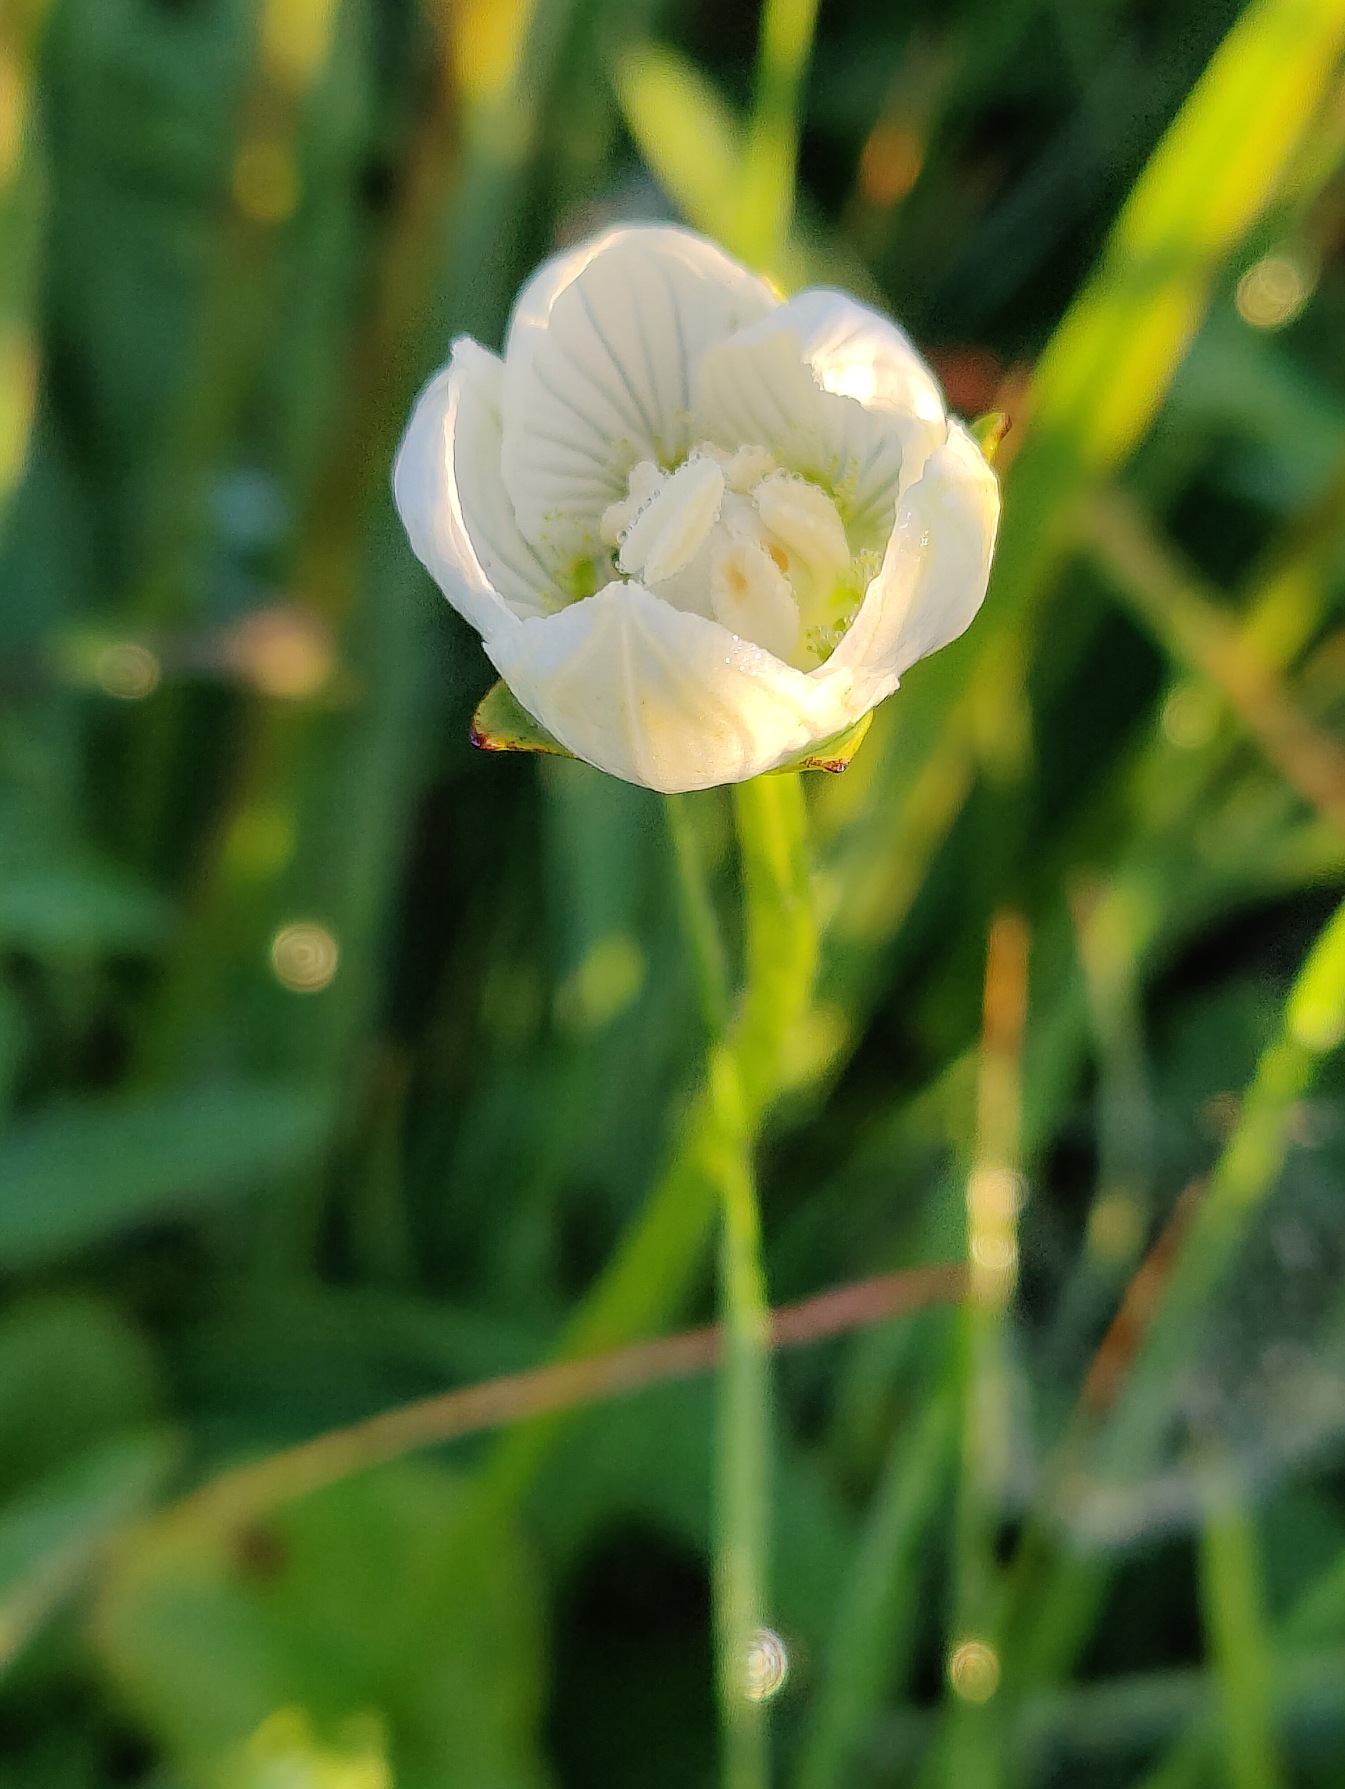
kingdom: Plantae
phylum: Tracheophyta
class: Magnoliopsida
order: Celastrales
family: Parnassiaceae
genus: Parnassia
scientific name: Parnassia palustris
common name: Leverurt
